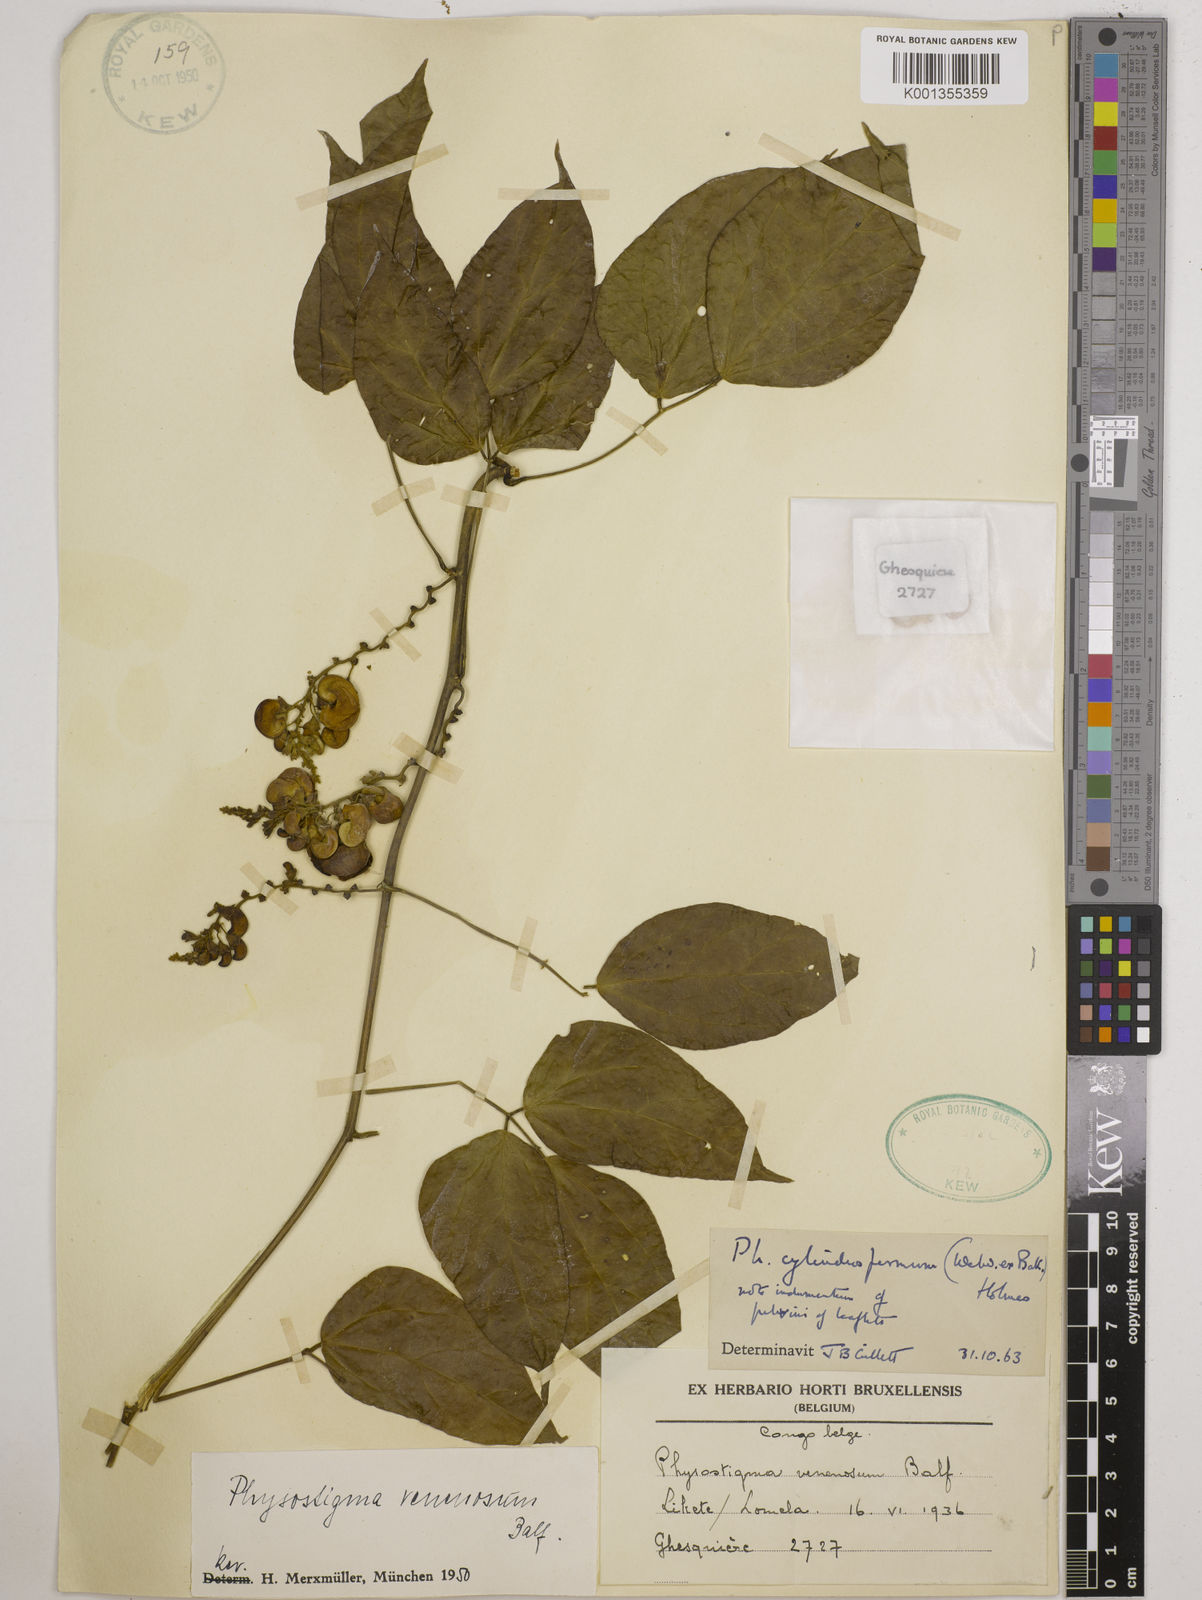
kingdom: Plantae
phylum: Tracheophyta
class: Magnoliopsida
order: Fabales
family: Fabaceae
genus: Physostigma
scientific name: Physostigma cylindrospermum
